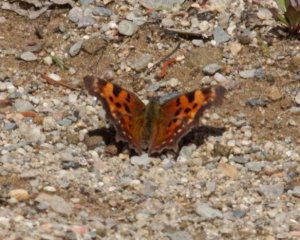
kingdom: Animalia
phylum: Arthropoda
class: Insecta
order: Lepidoptera
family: Nymphalidae
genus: Polygonia
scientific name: Polygonia faunus
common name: Green Comma
